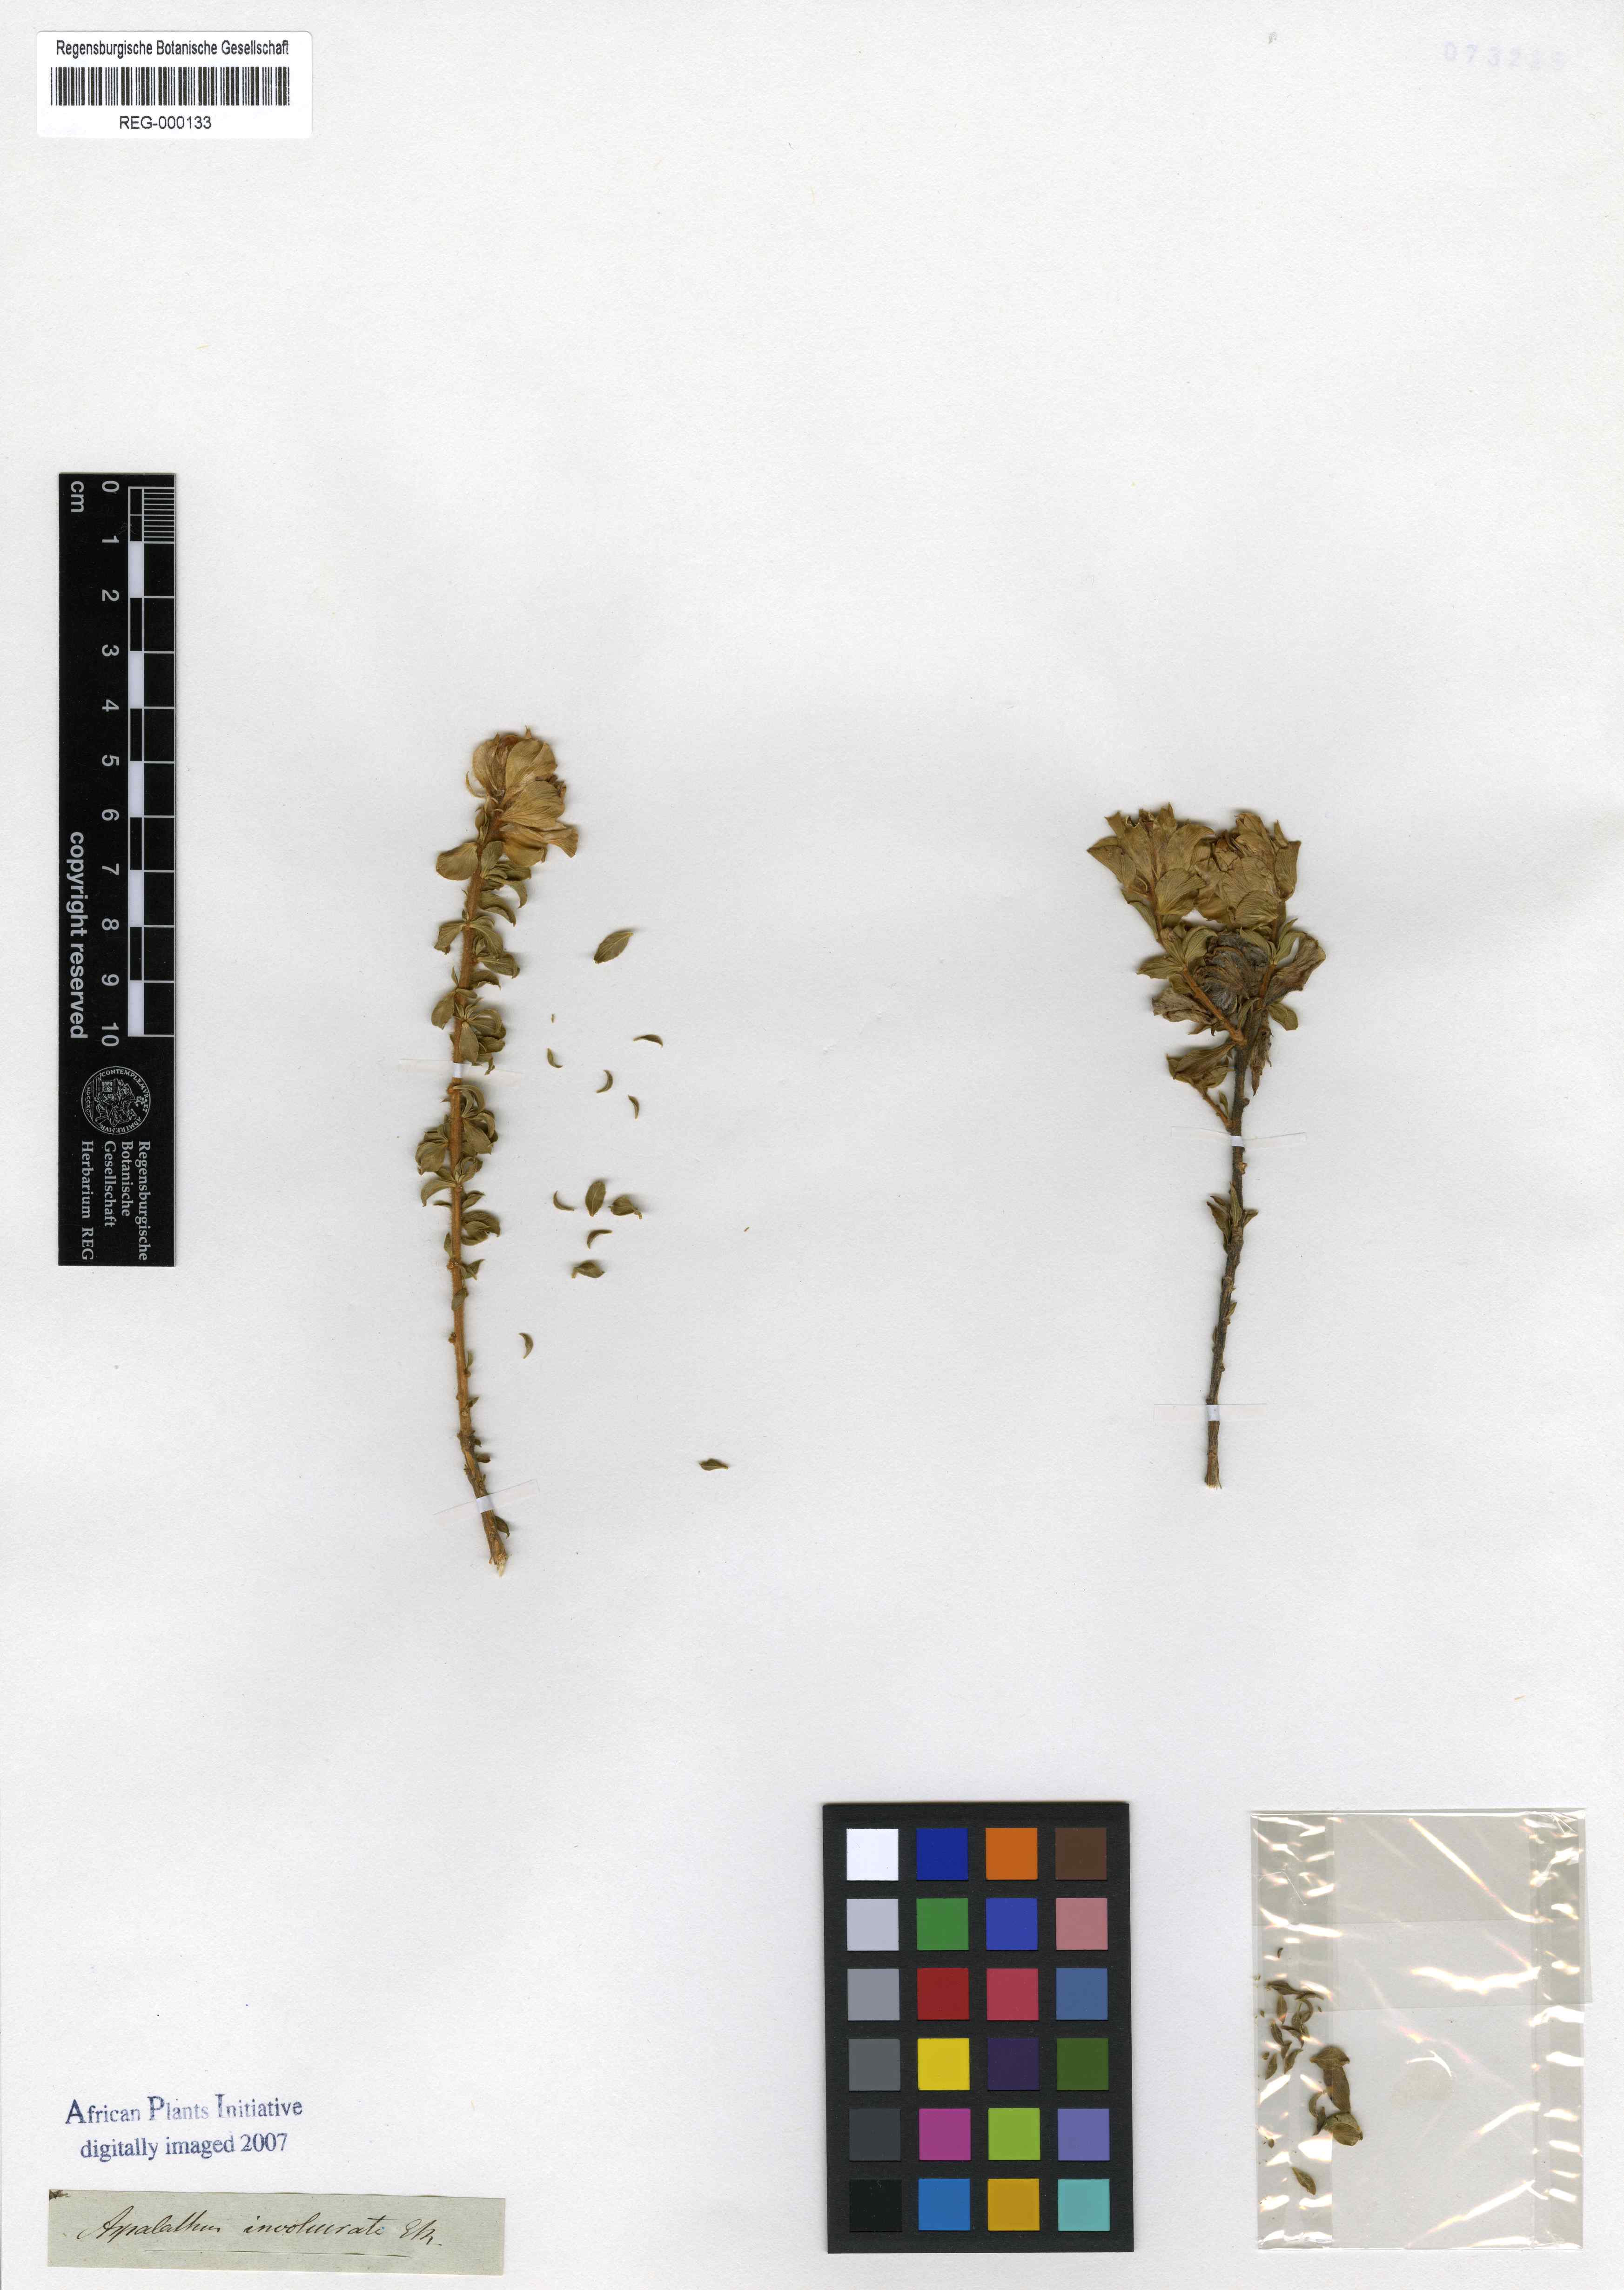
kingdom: Plantae
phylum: Tracheophyta
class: Magnoliopsida
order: Fabales
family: Fabaceae
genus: Aspalathus
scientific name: Aspalathus fasciculata
